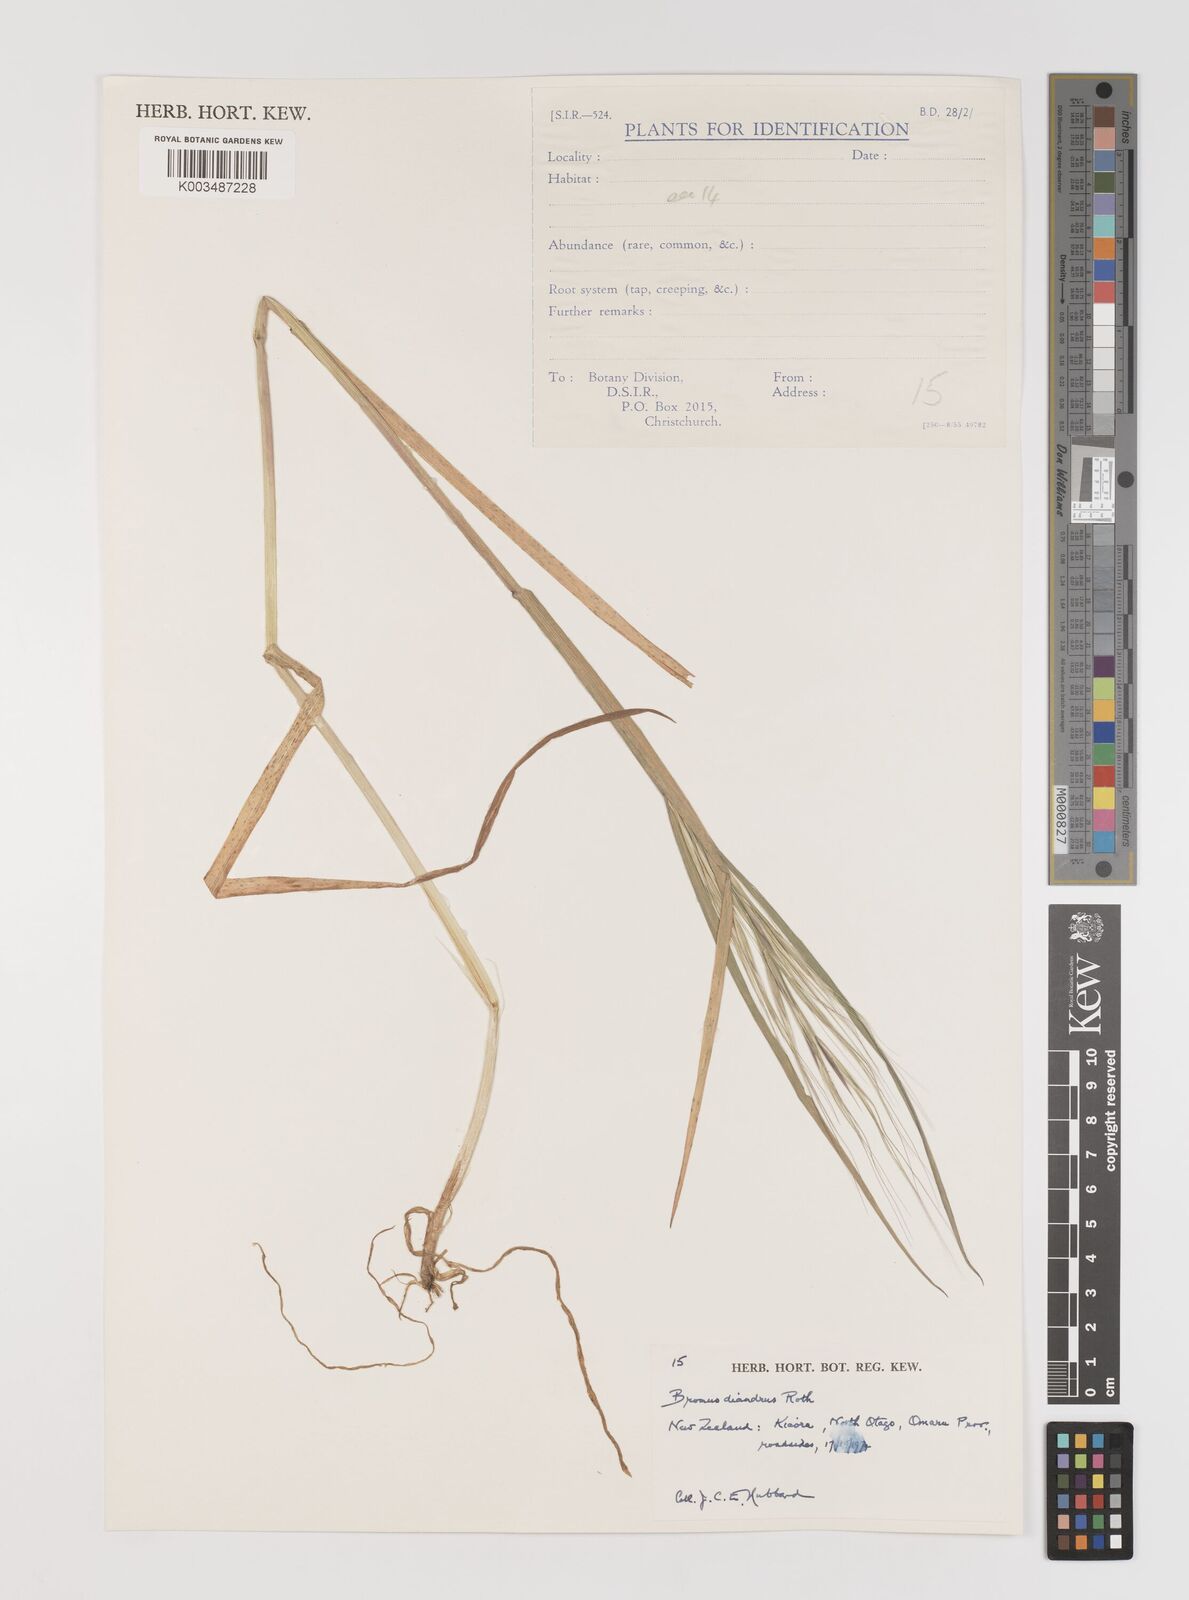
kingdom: Plantae
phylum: Tracheophyta
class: Liliopsida
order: Poales
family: Poaceae
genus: Bromus
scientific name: Bromus diandrus
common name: Ripgut brome
